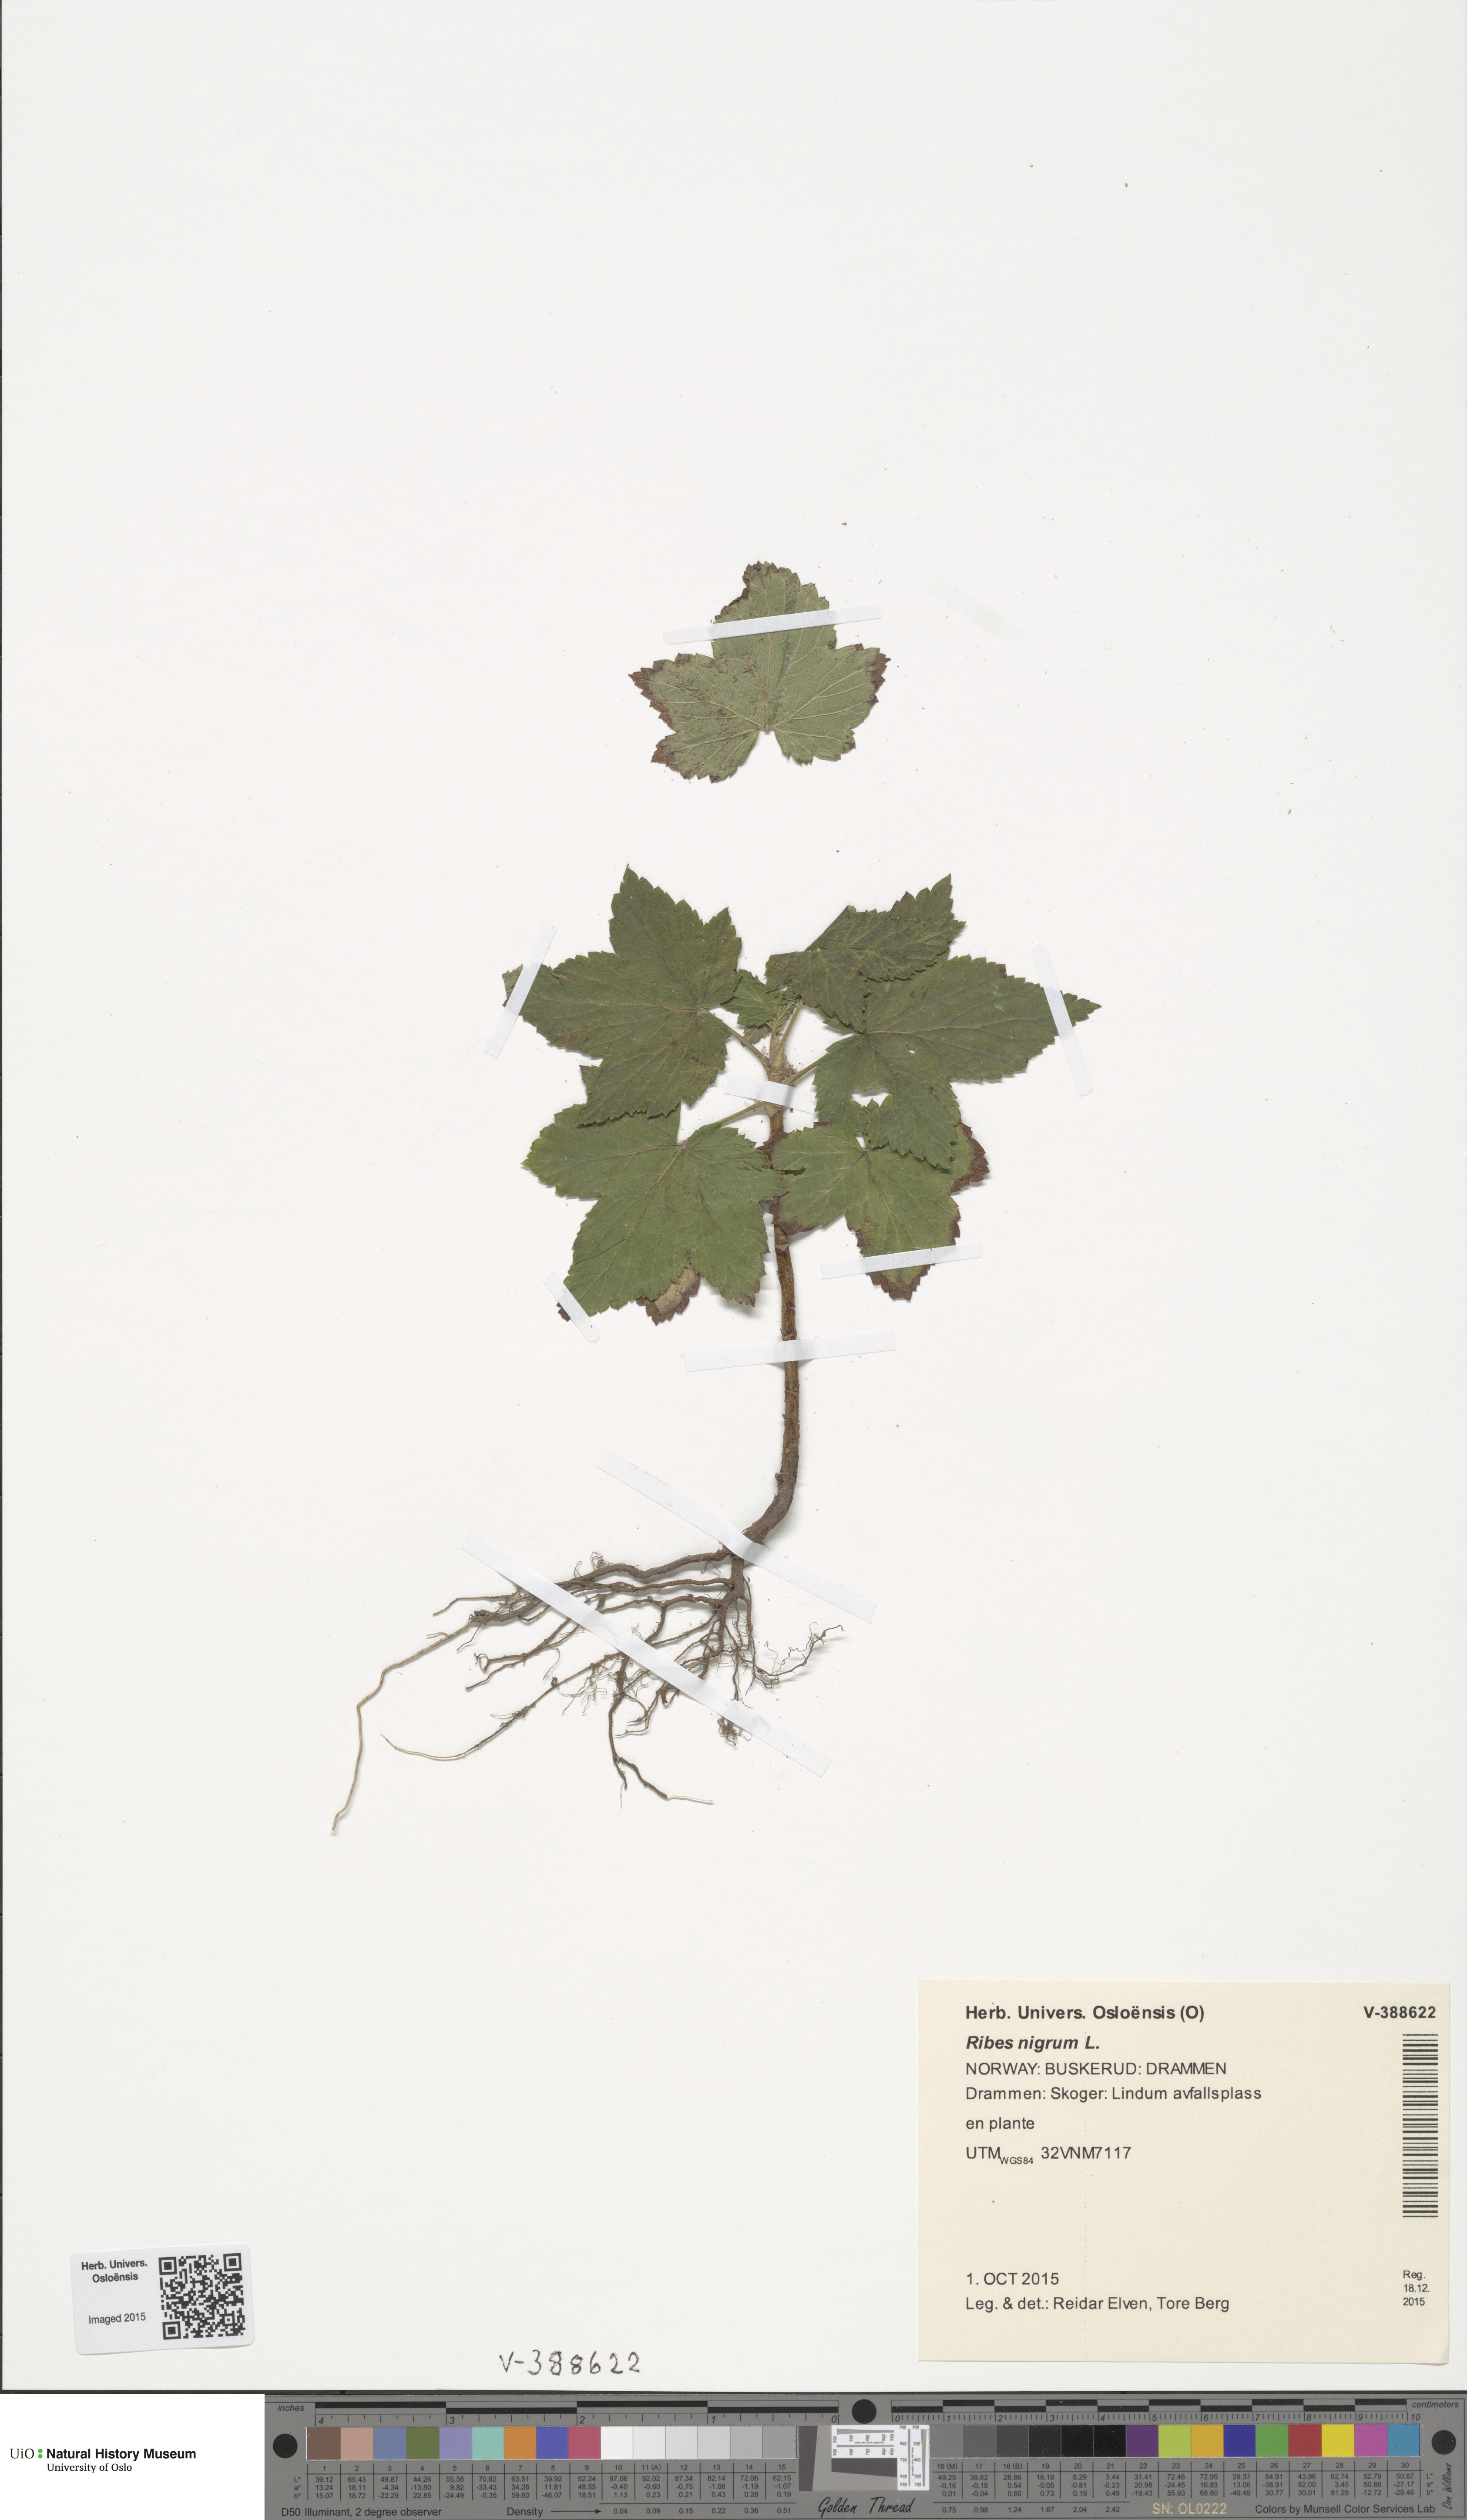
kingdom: Plantae
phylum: Tracheophyta
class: Magnoliopsida
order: Saxifragales
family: Grossulariaceae
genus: Ribes
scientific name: Ribes nigrum
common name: Black currant
